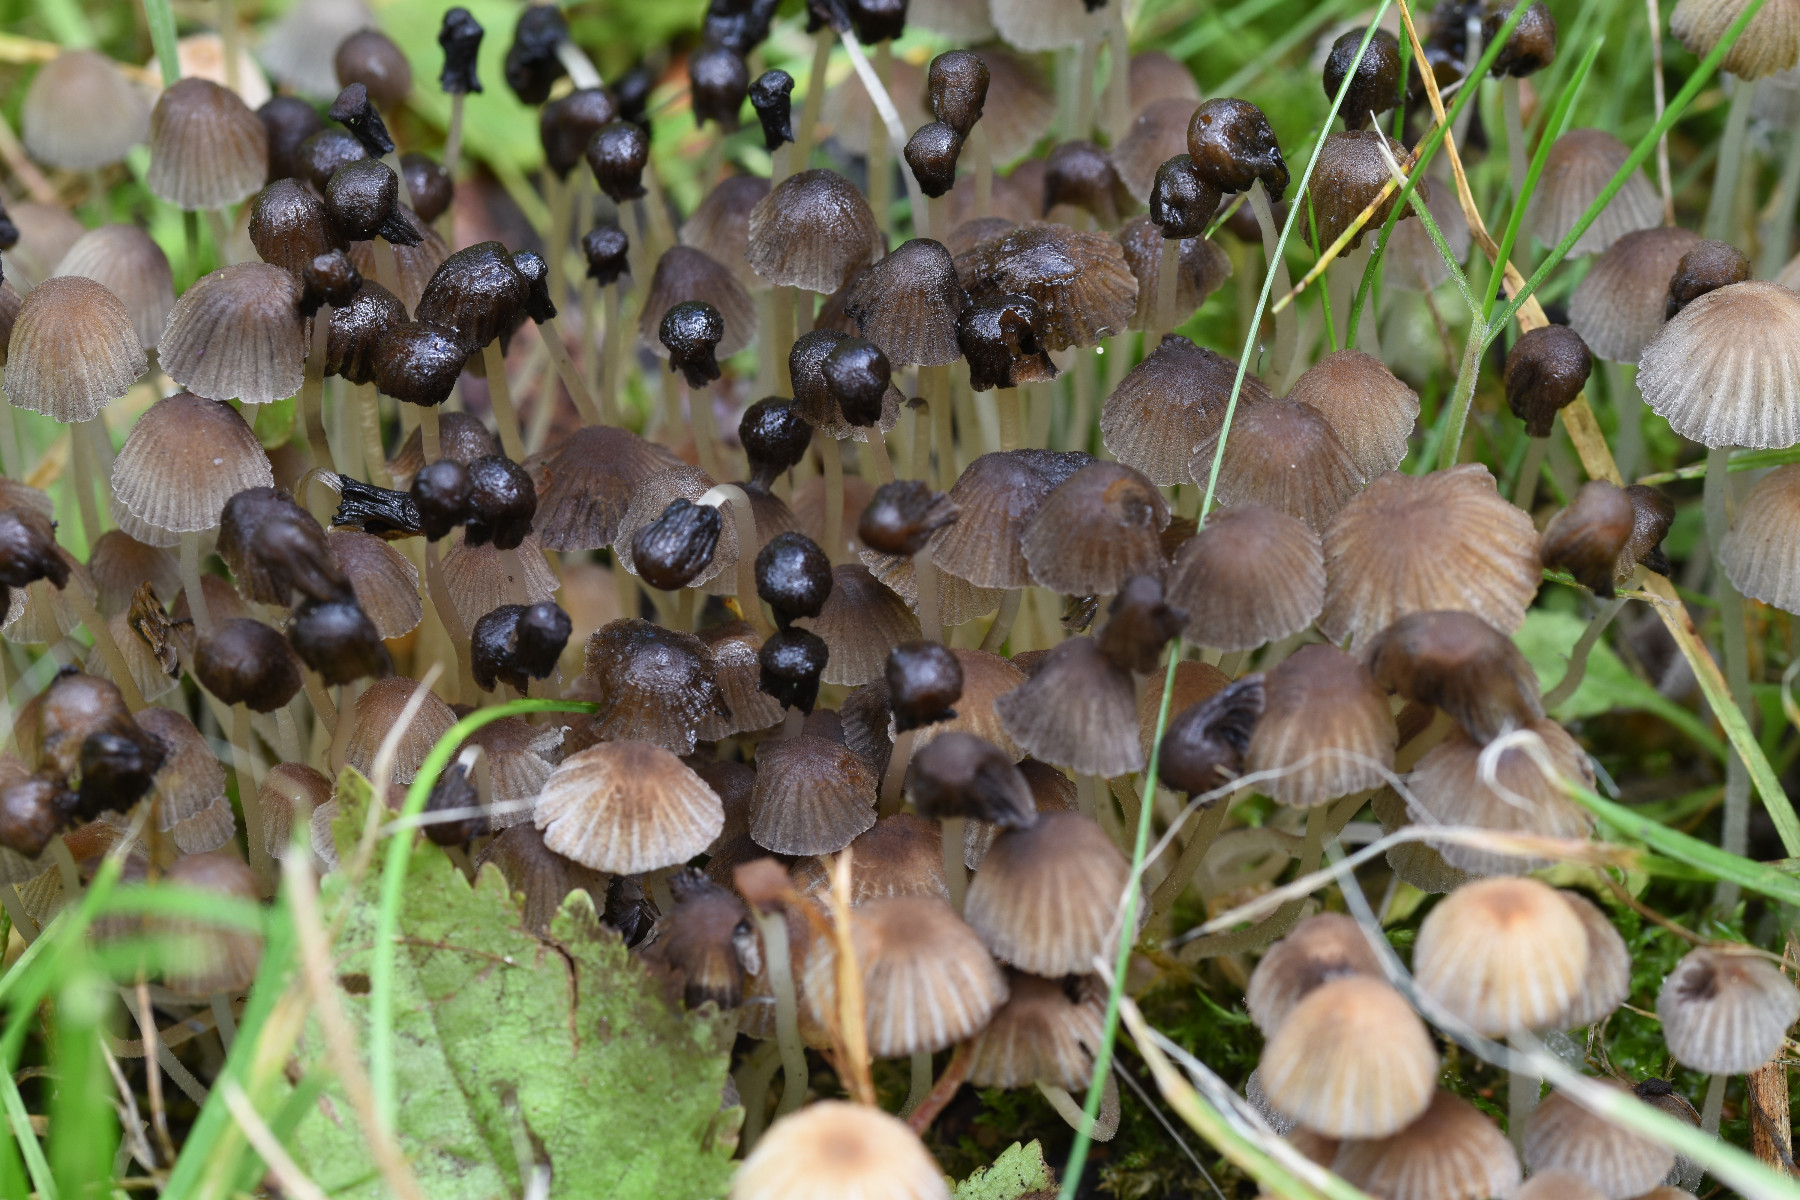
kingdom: Fungi
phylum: Basidiomycota
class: Agaricomycetes
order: Agaricales
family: Psathyrellaceae
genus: Coprinellus
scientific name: Coprinellus disseminatus
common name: bredsået blækhat
